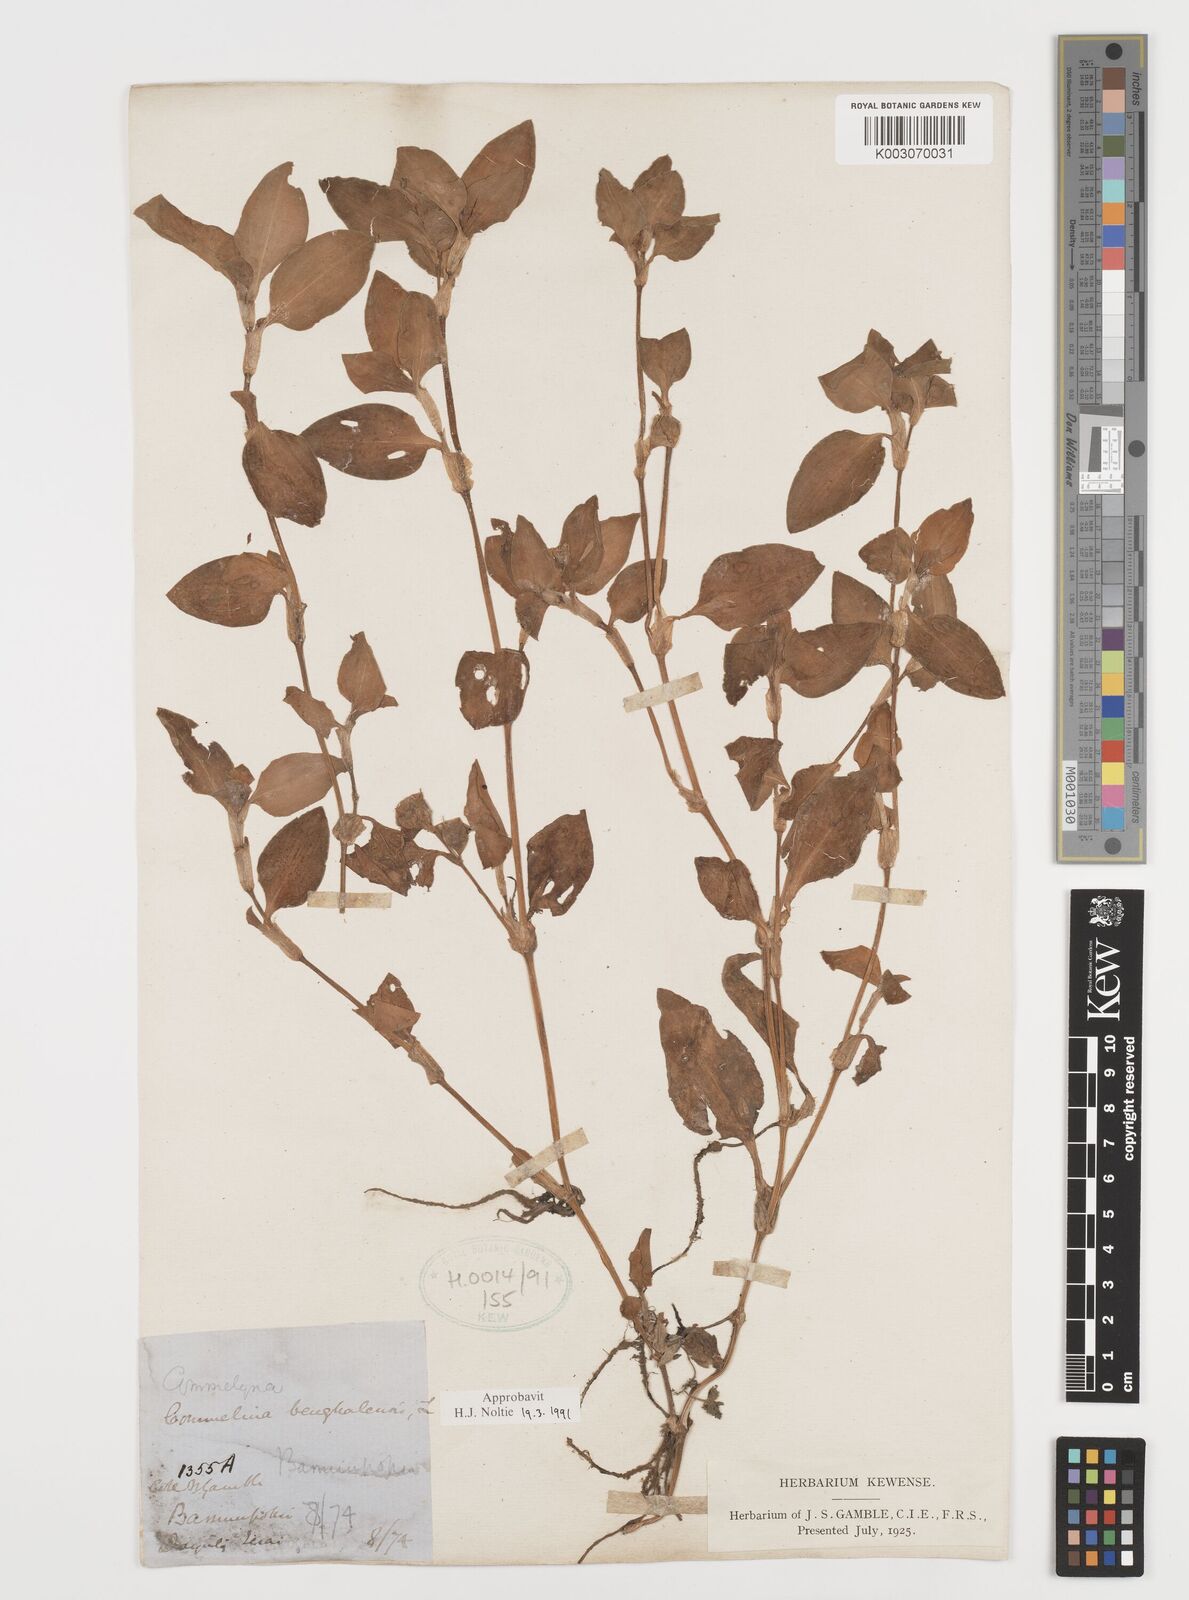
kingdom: Plantae
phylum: Tracheophyta
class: Liliopsida
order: Commelinales
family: Commelinaceae
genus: Commelina
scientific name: Commelina
